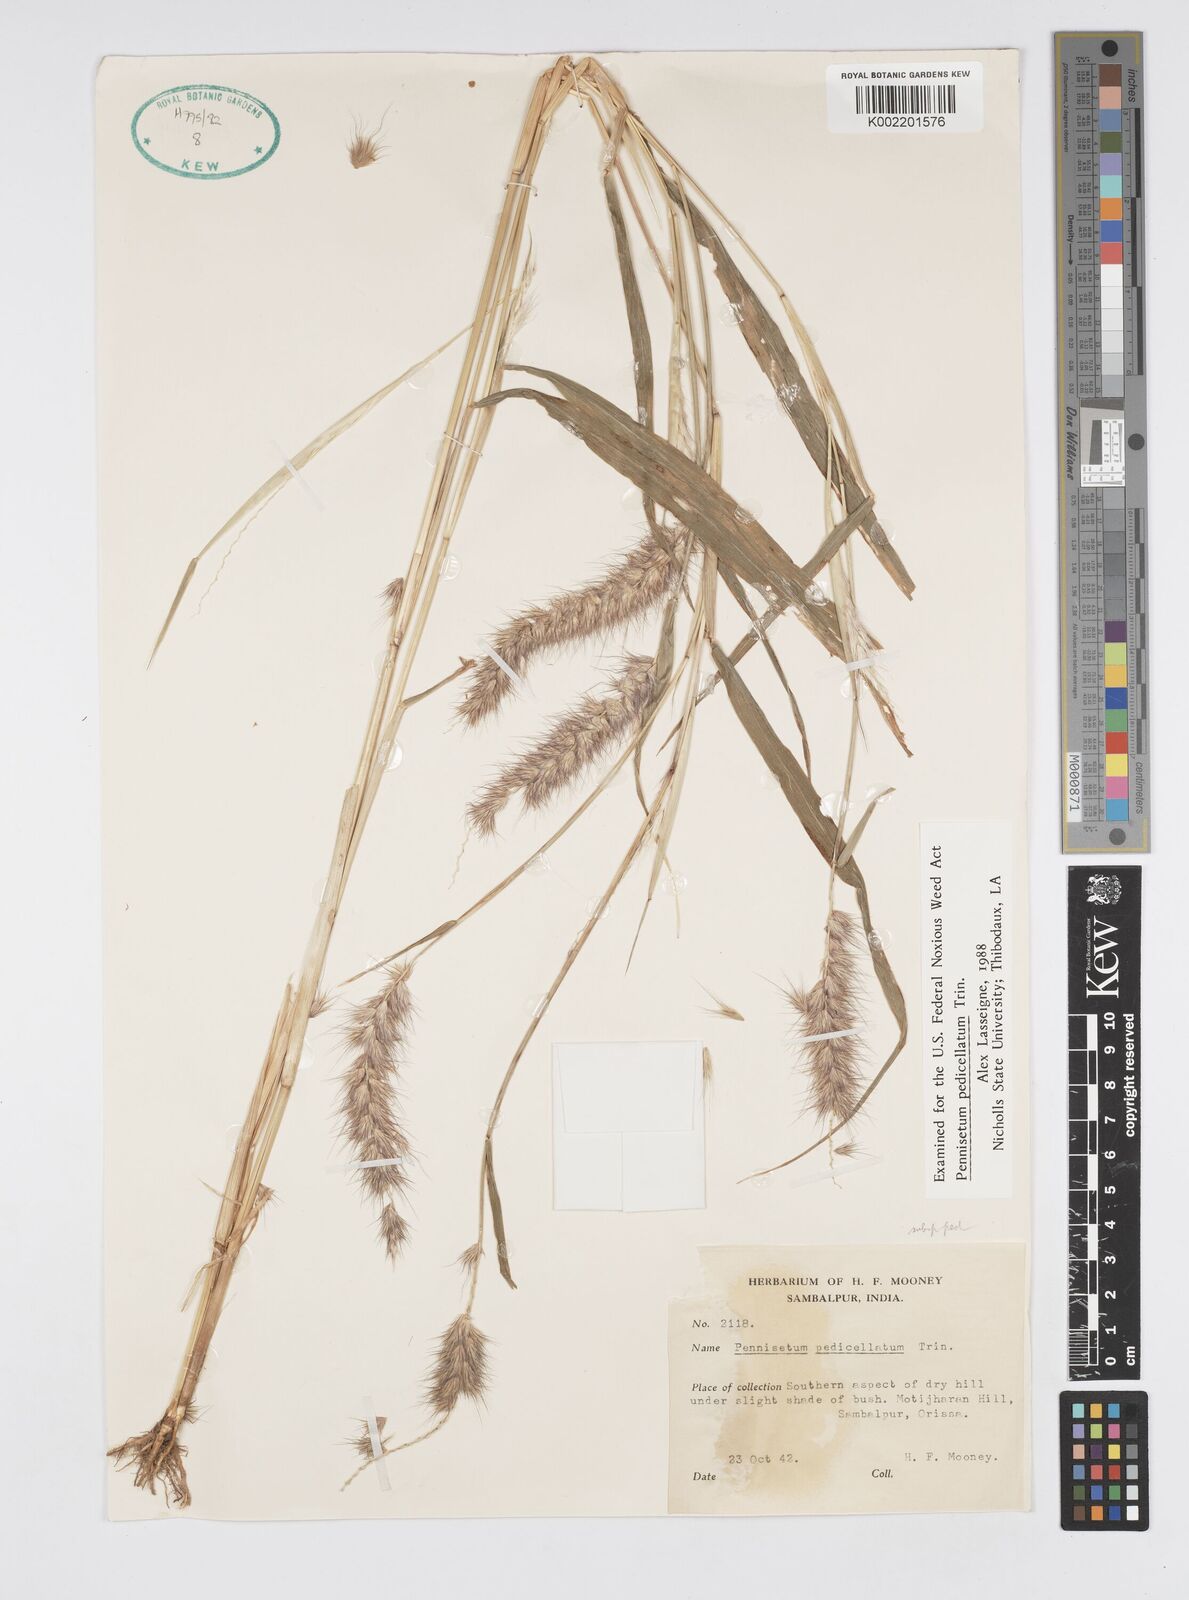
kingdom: Plantae
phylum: Tracheophyta
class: Liliopsida
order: Poales
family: Poaceae
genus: Cenchrus
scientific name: Cenchrus pedicellatus
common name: Hairy fountain grass
